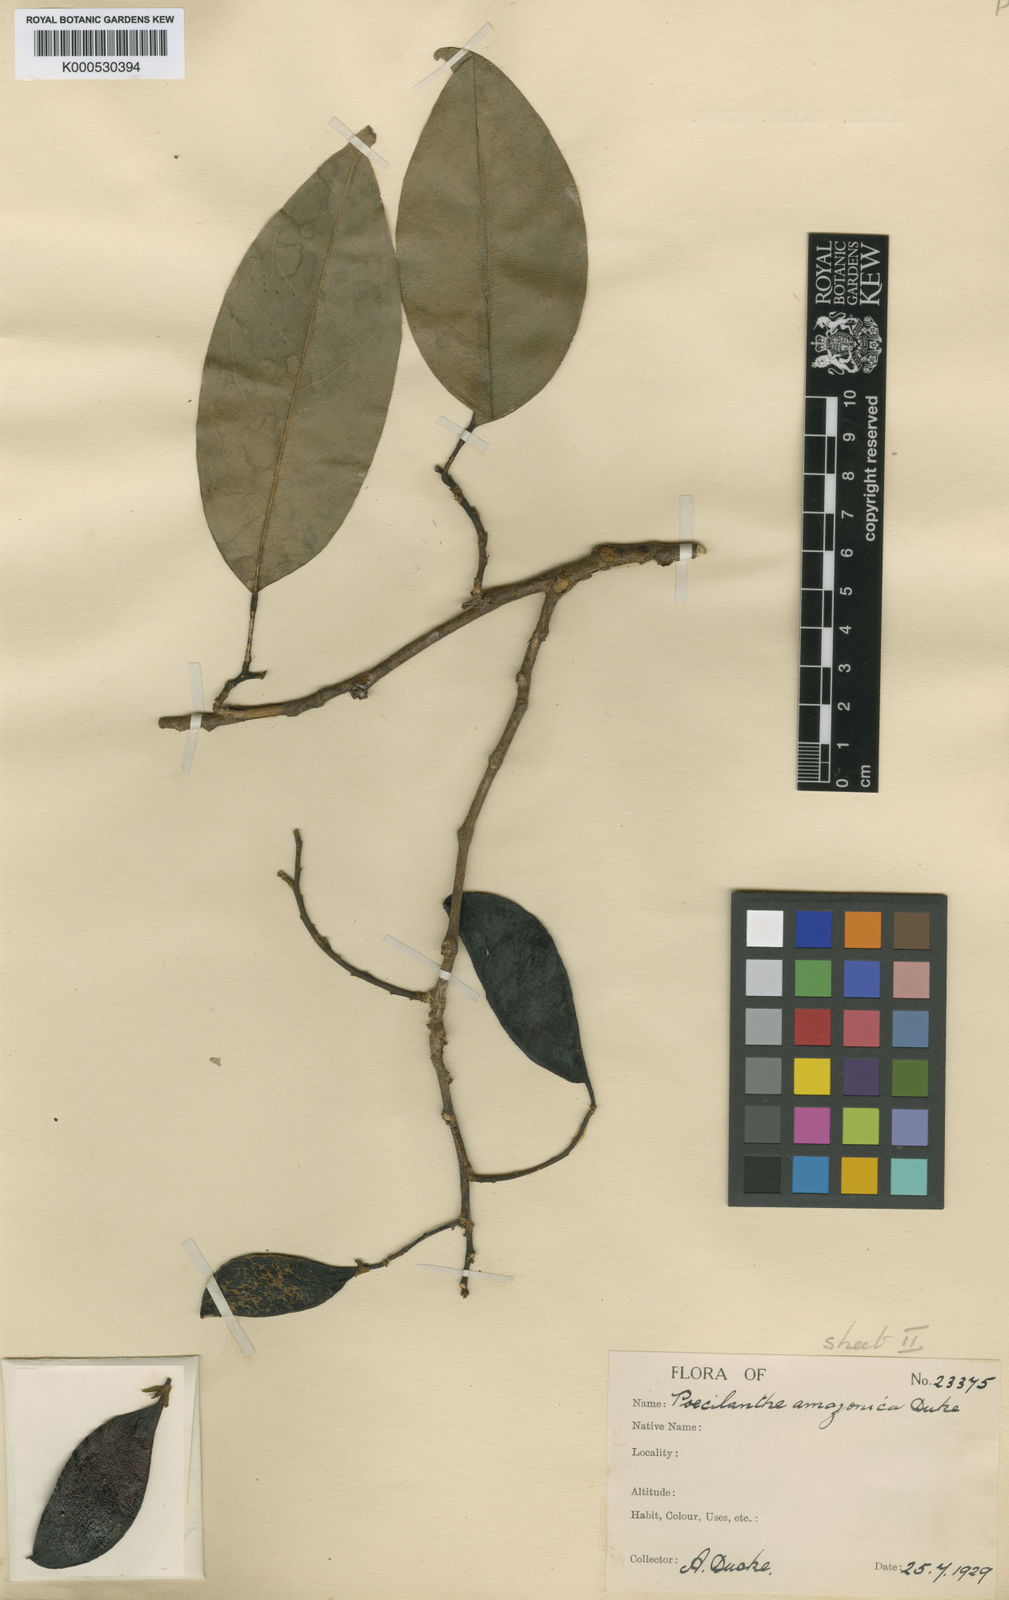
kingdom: Plantae
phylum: Tracheophyta
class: Magnoliopsida
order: Fabales
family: Fabaceae
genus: Limadendron
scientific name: Limadendron amazonicum
